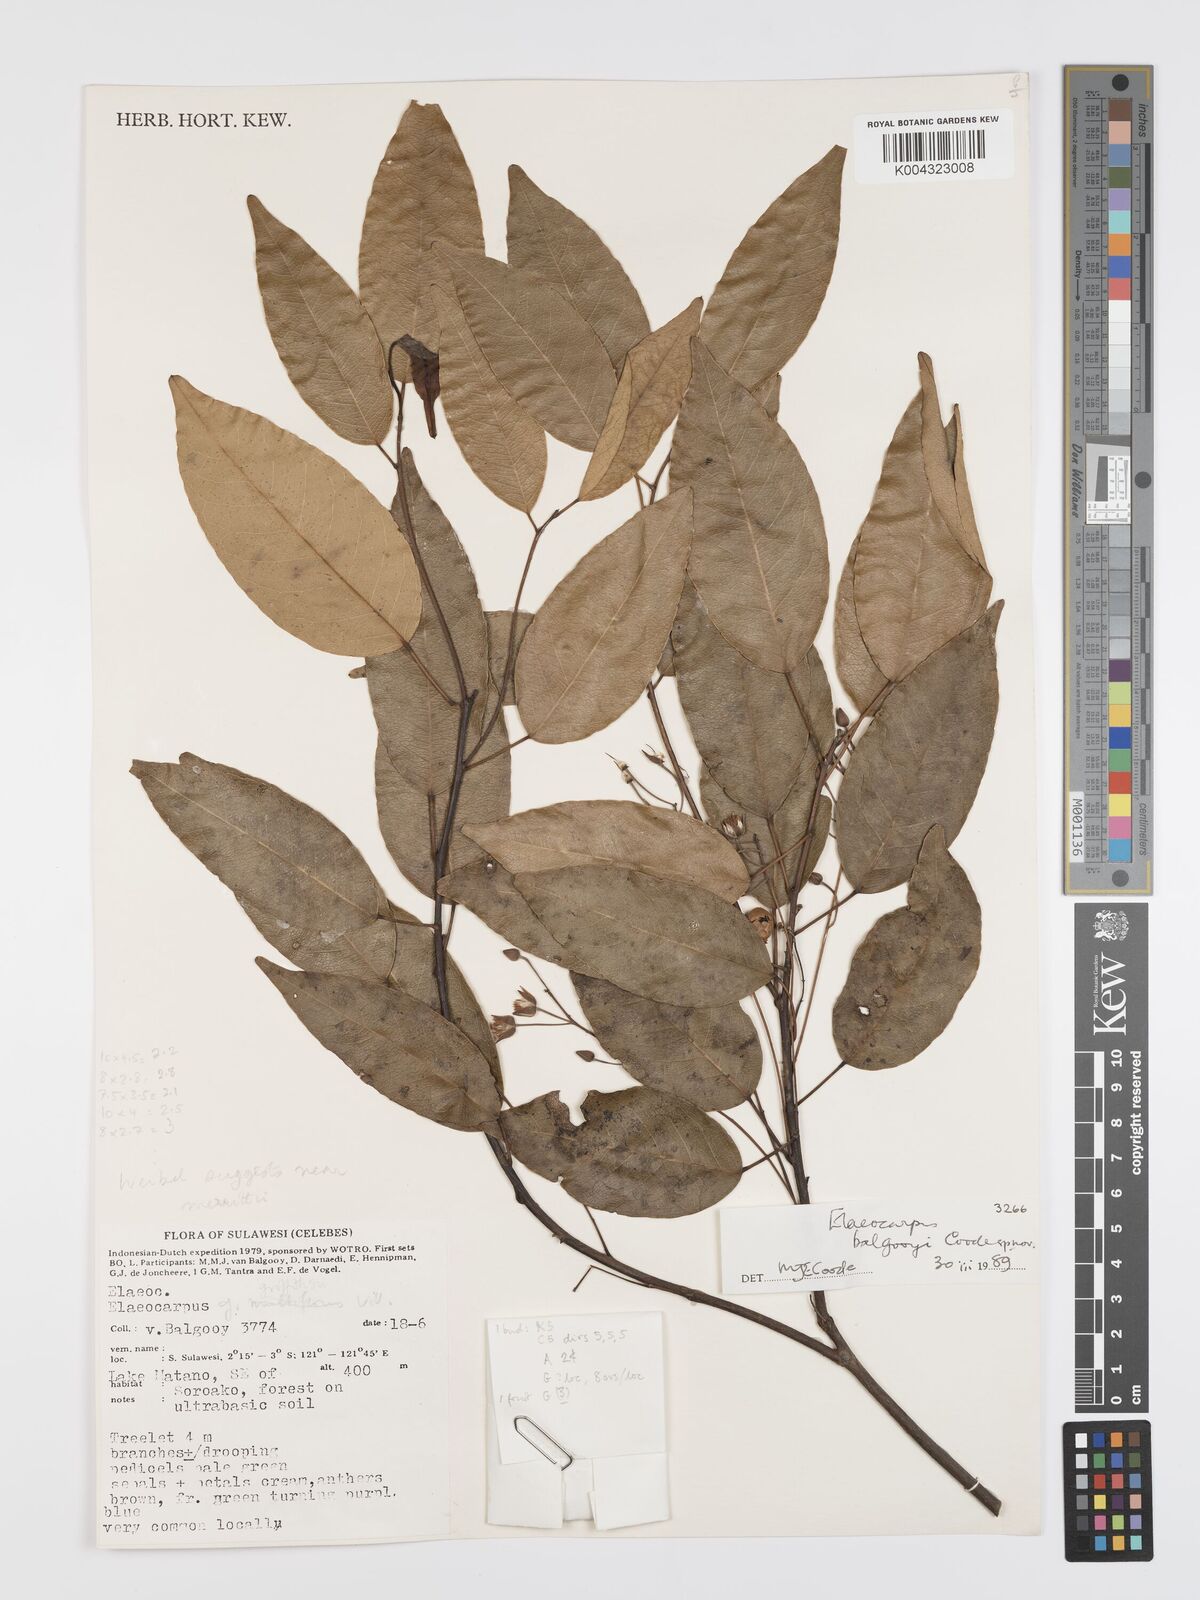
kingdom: Plantae
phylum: Tracheophyta
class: Magnoliopsida
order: Oxalidales
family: Elaeocarpaceae
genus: Elaeocarpus
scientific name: Elaeocarpus balgooyi
